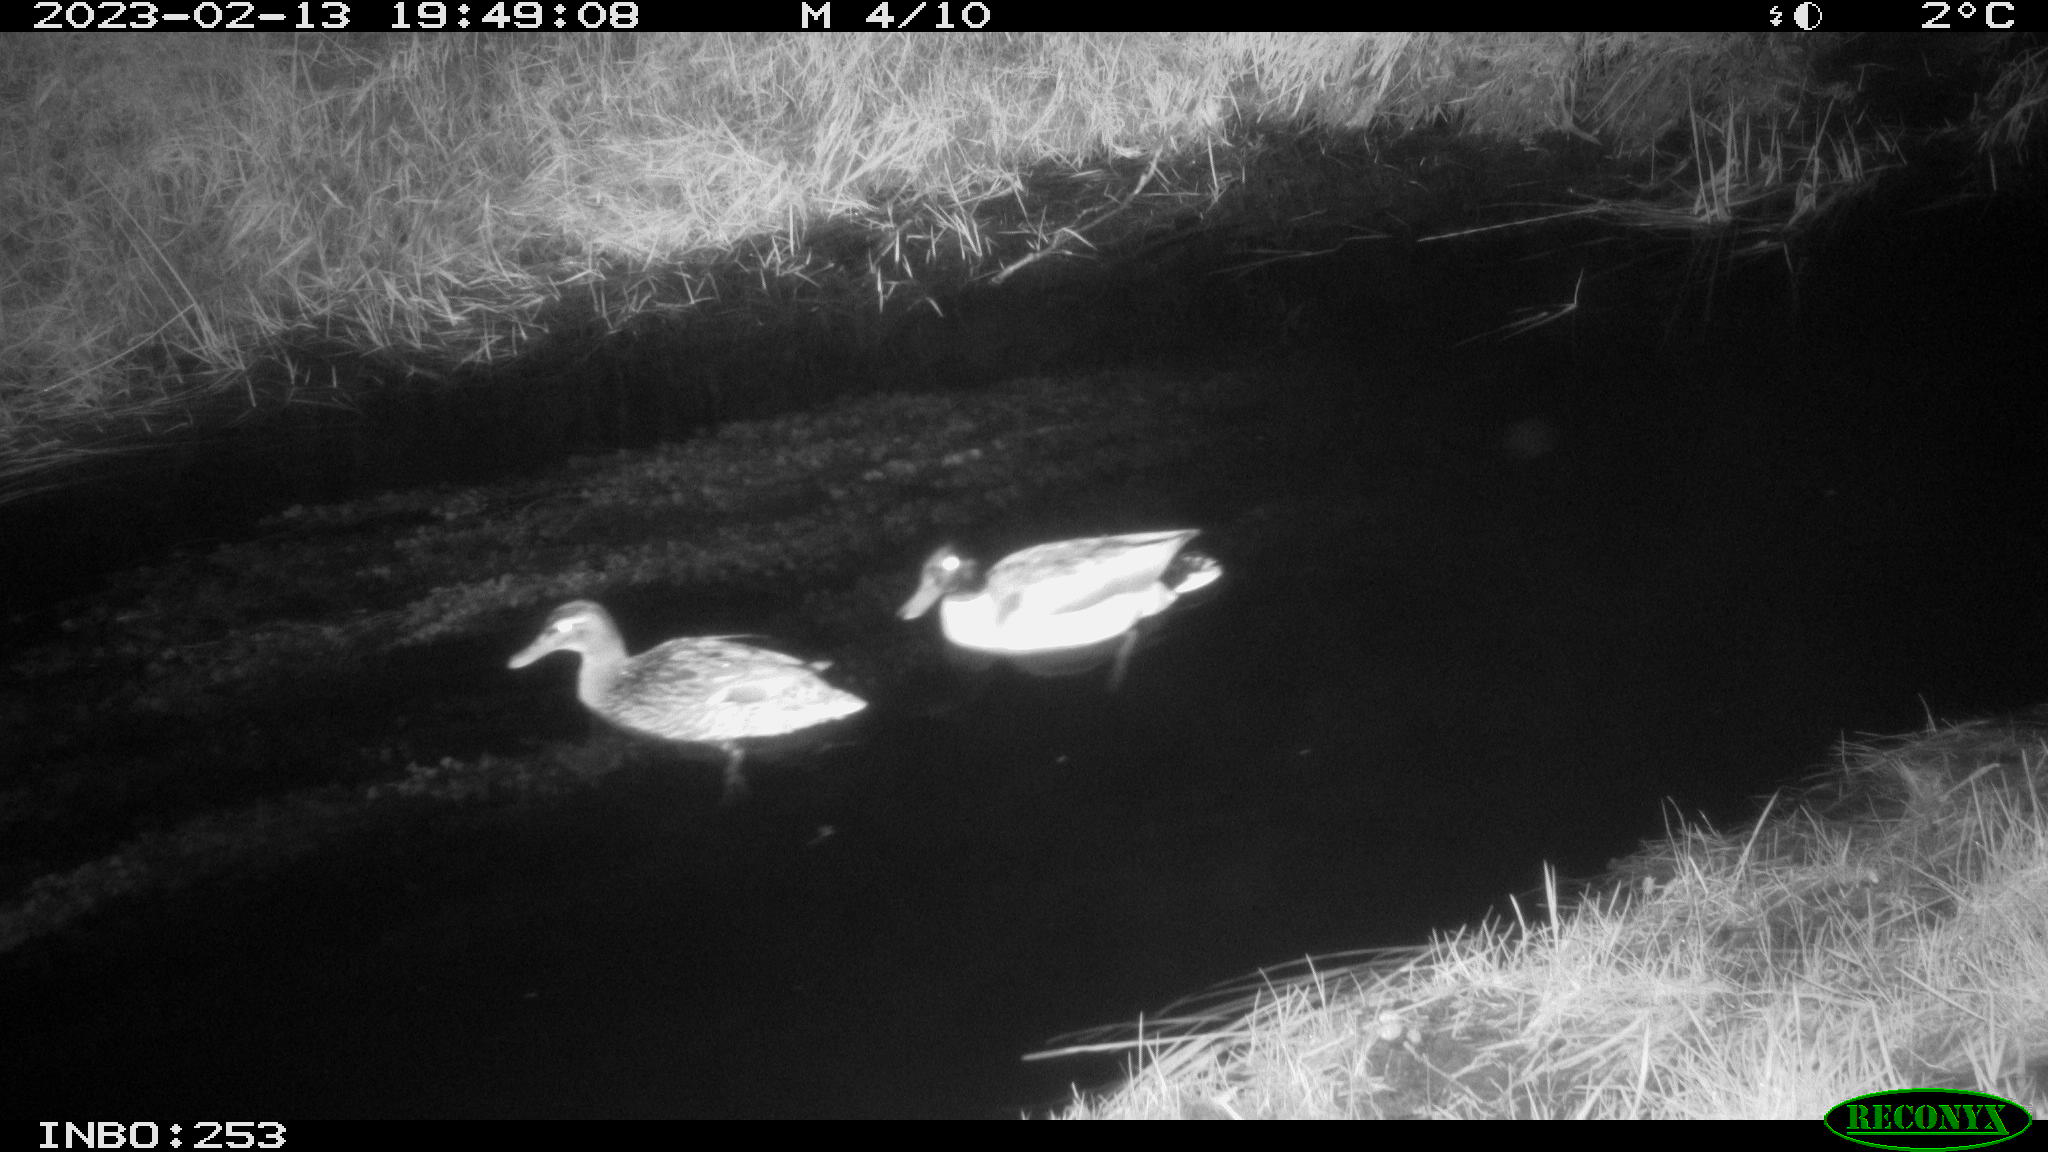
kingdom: Animalia
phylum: Chordata
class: Aves
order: Anseriformes
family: Anatidae
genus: Anas
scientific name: Anas
